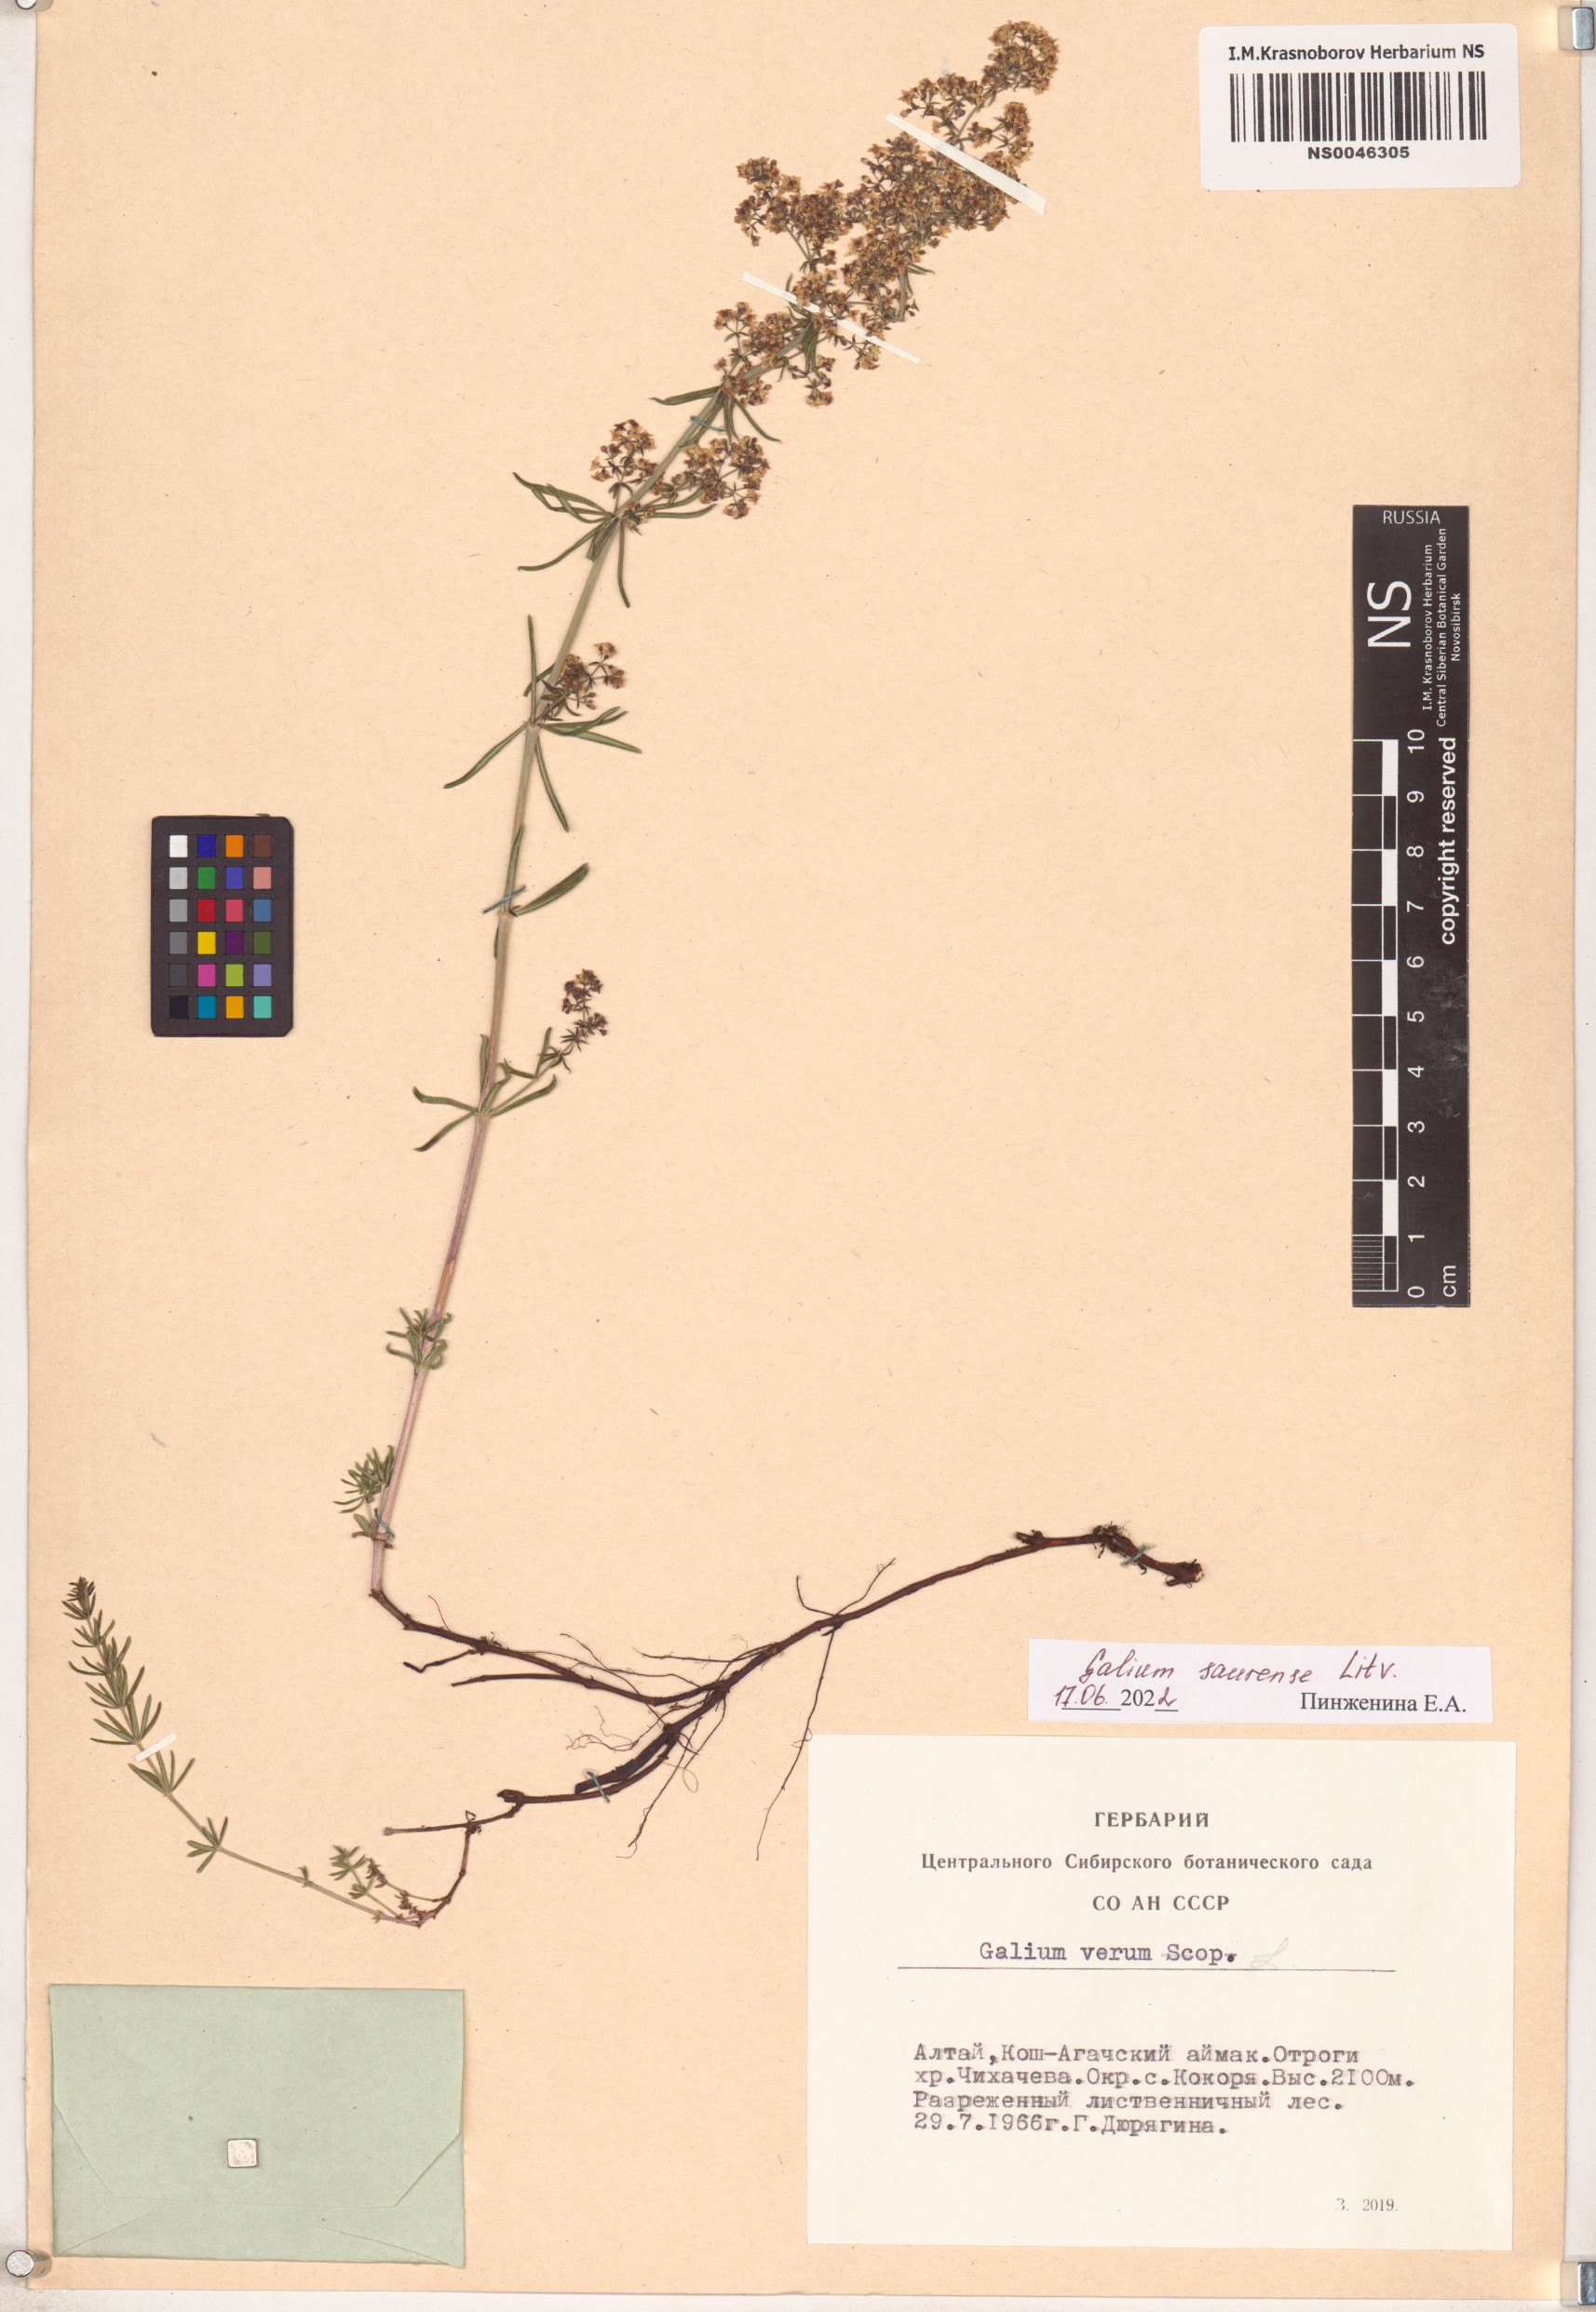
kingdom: Plantae
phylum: Tracheophyta
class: Magnoliopsida
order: Gentianales
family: Rubiaceae
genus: Galium
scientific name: Galium saurense
